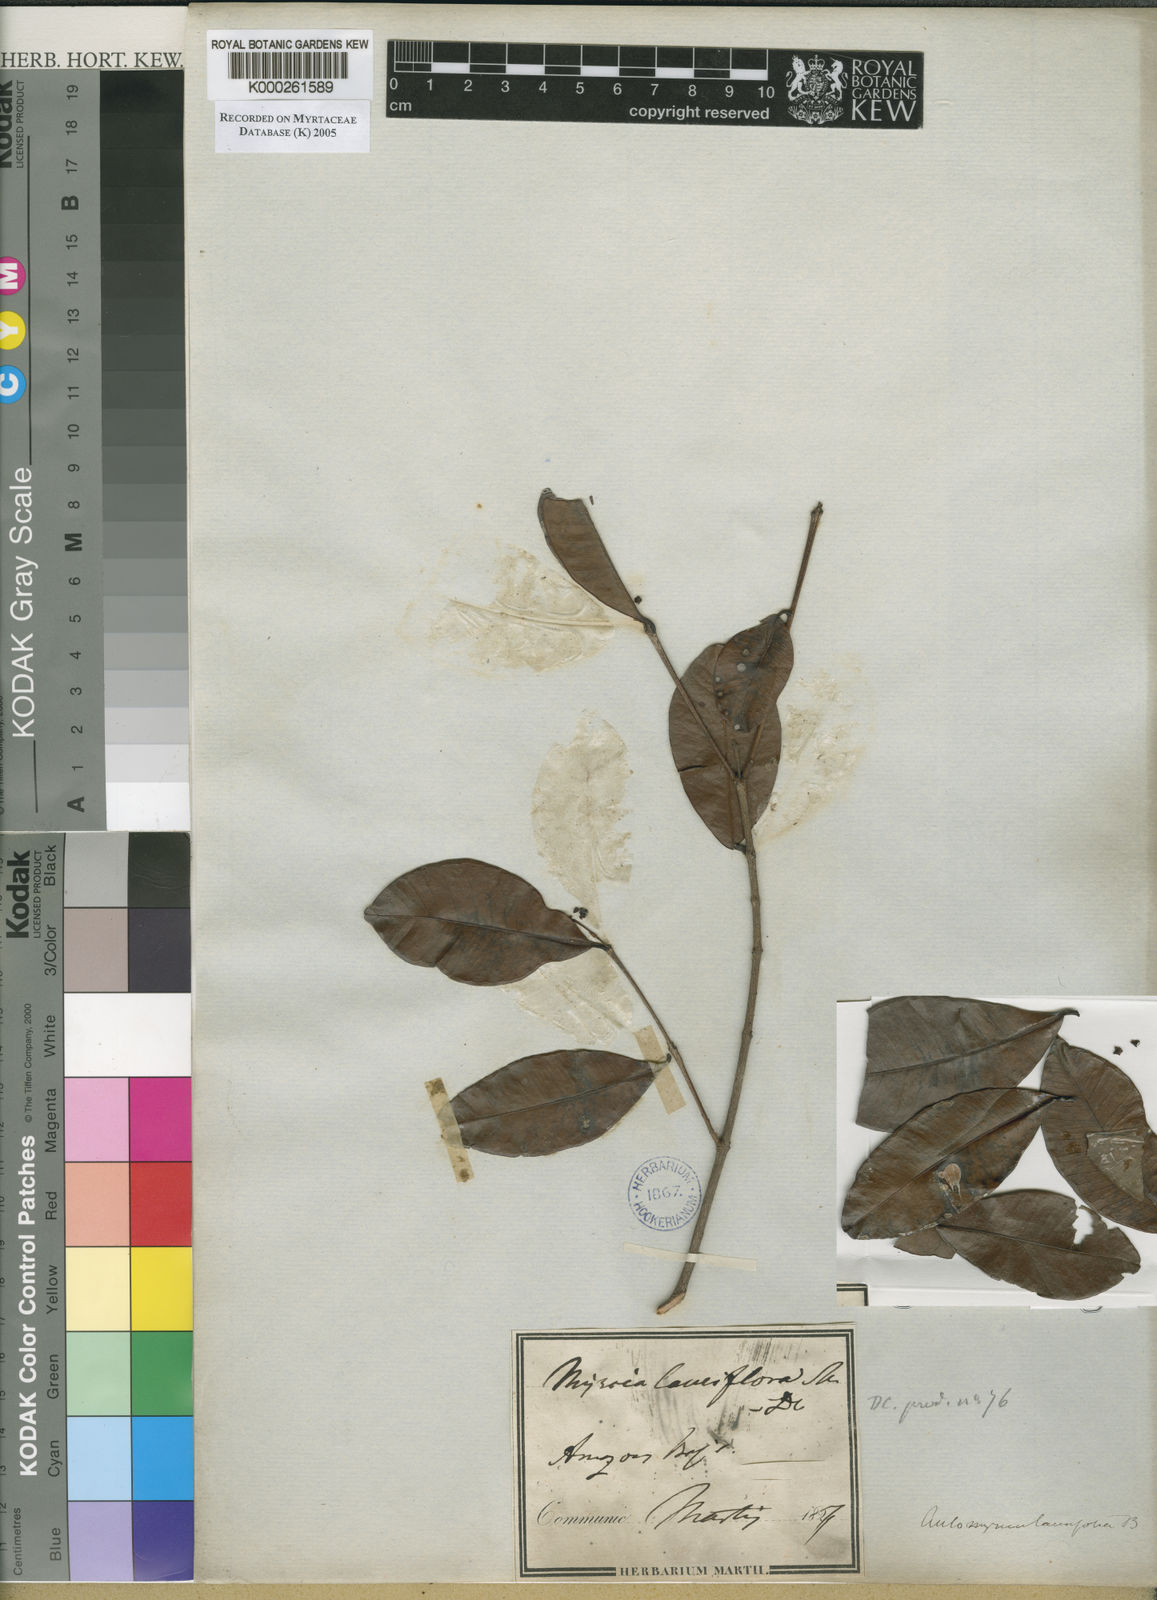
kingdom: Plantae
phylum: Tracheophyta
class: Magnoliopsida
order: Myrtales
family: Myrtaceae
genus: Myrcia
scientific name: Myrcia guianensis
